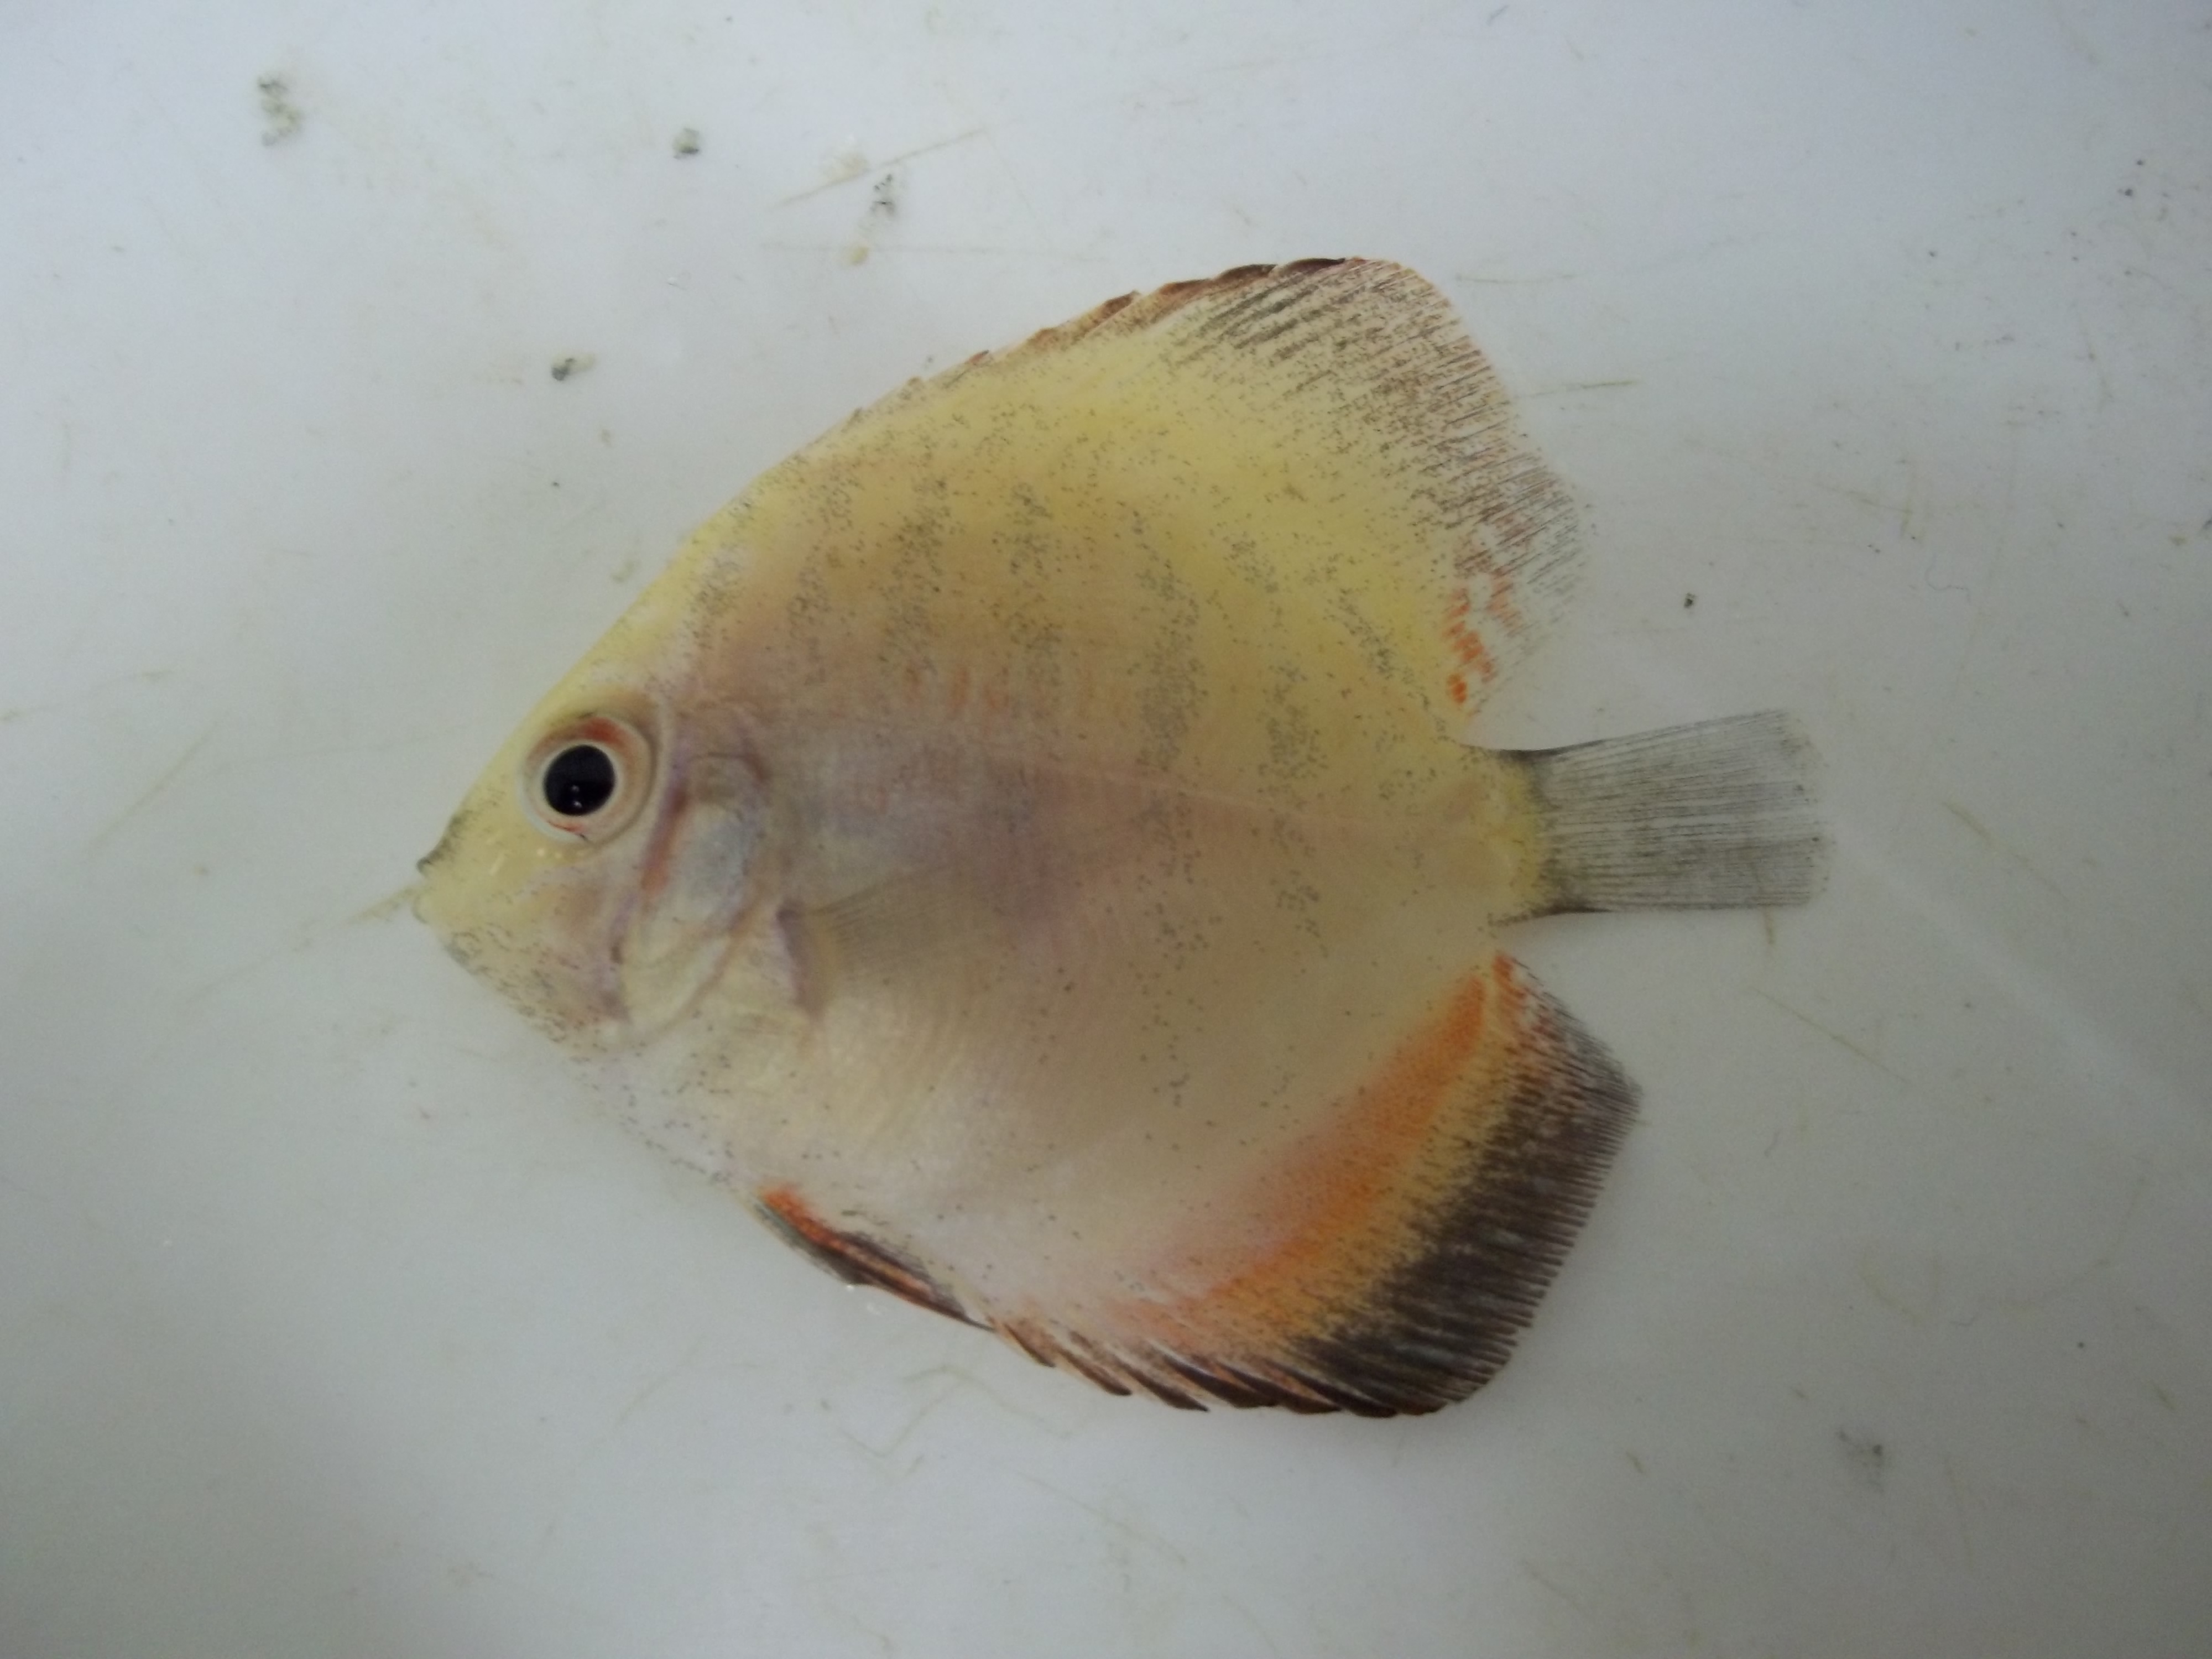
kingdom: Animalia
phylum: Chordata
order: Perciformes
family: Cichlidae
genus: Symphysodon
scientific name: Symphysodon
